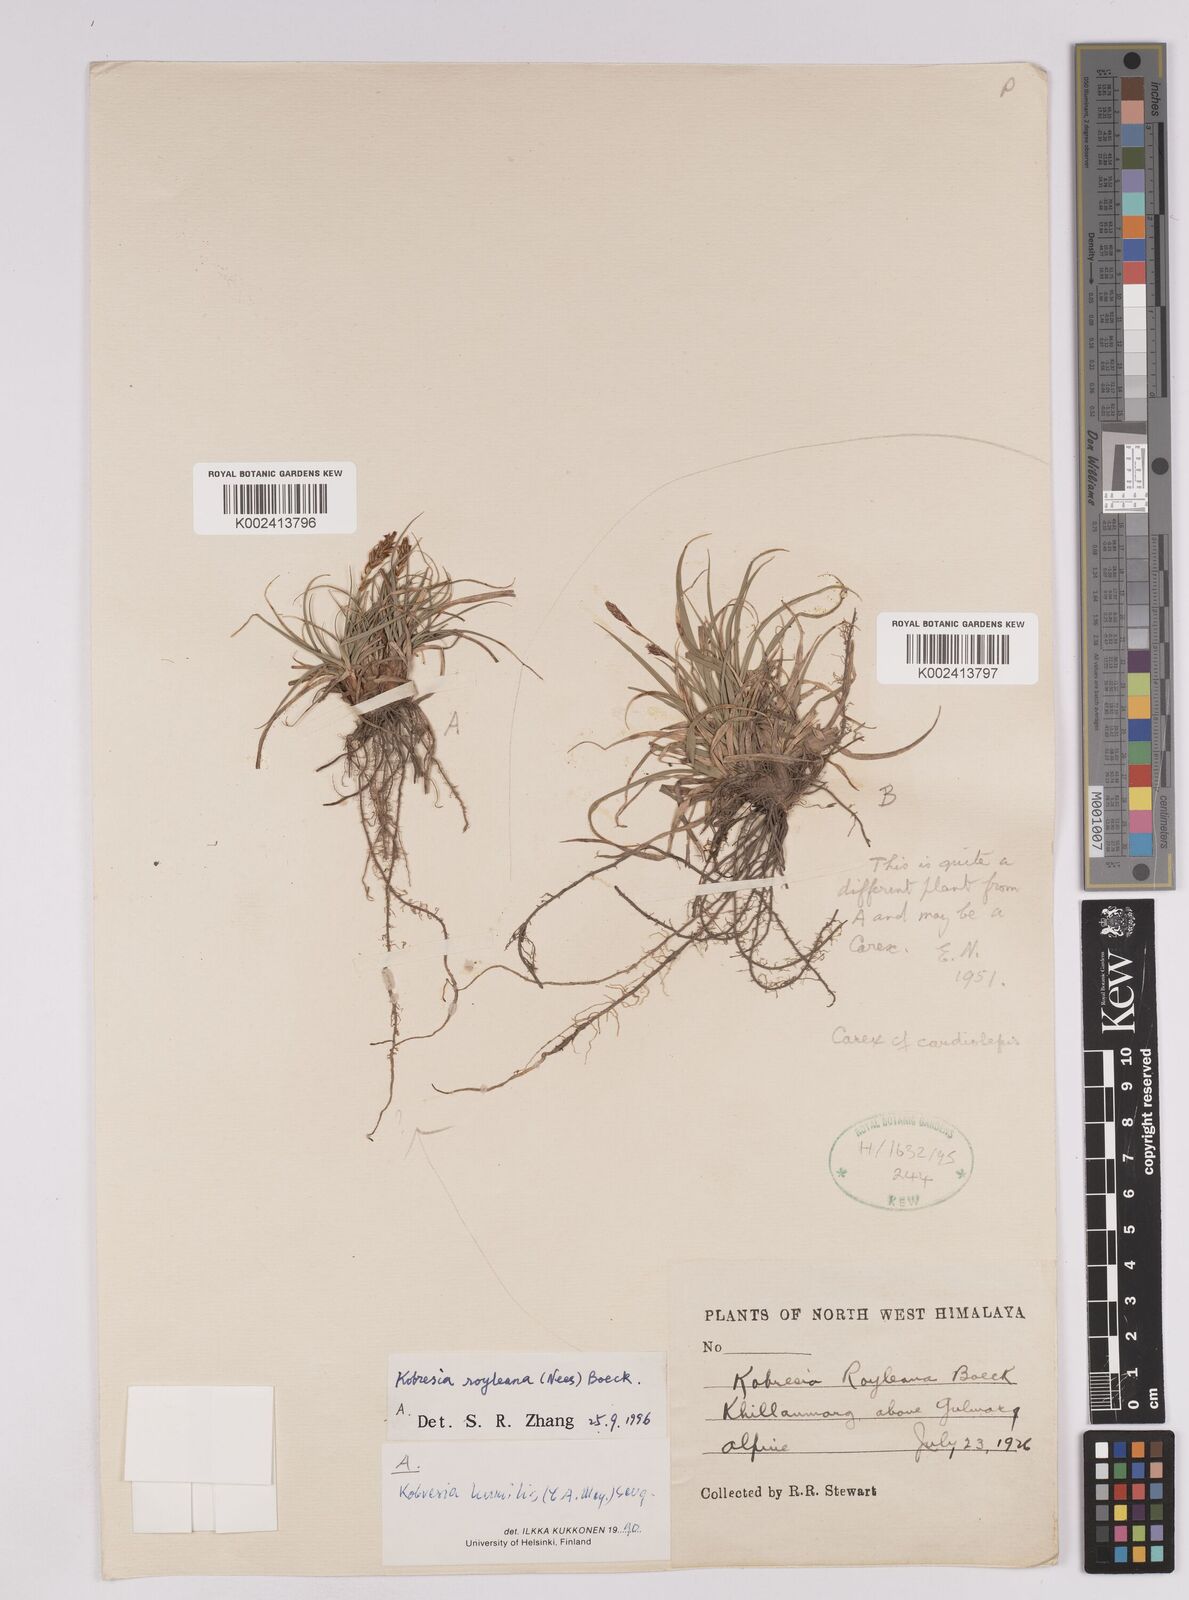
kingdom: Plantae
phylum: Tracheophyta
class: Liliopsida
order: Poales
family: Cyperaceae
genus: Carex
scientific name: Carex kokanica
